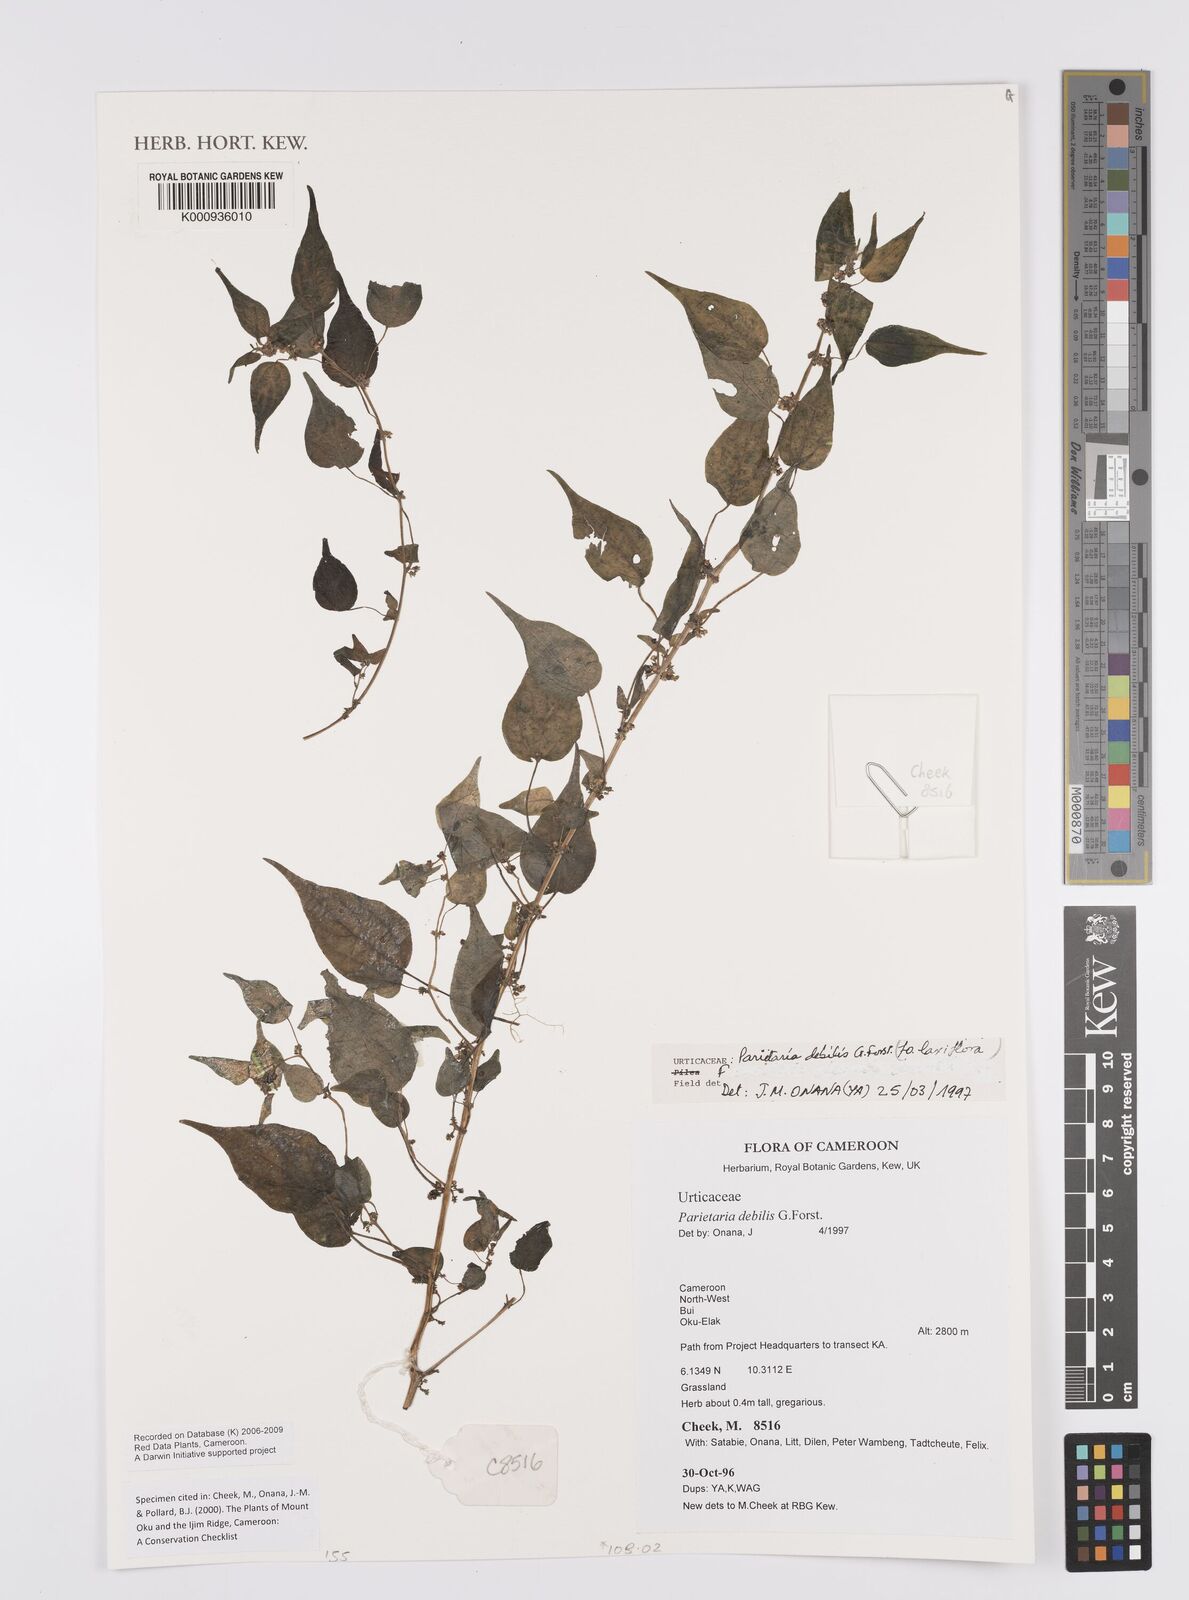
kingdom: Plantae
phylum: Tracheophyta
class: Magnoliopsida
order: Rosales
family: Urticaceae
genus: Parietaria
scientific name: Parietaria debilis
